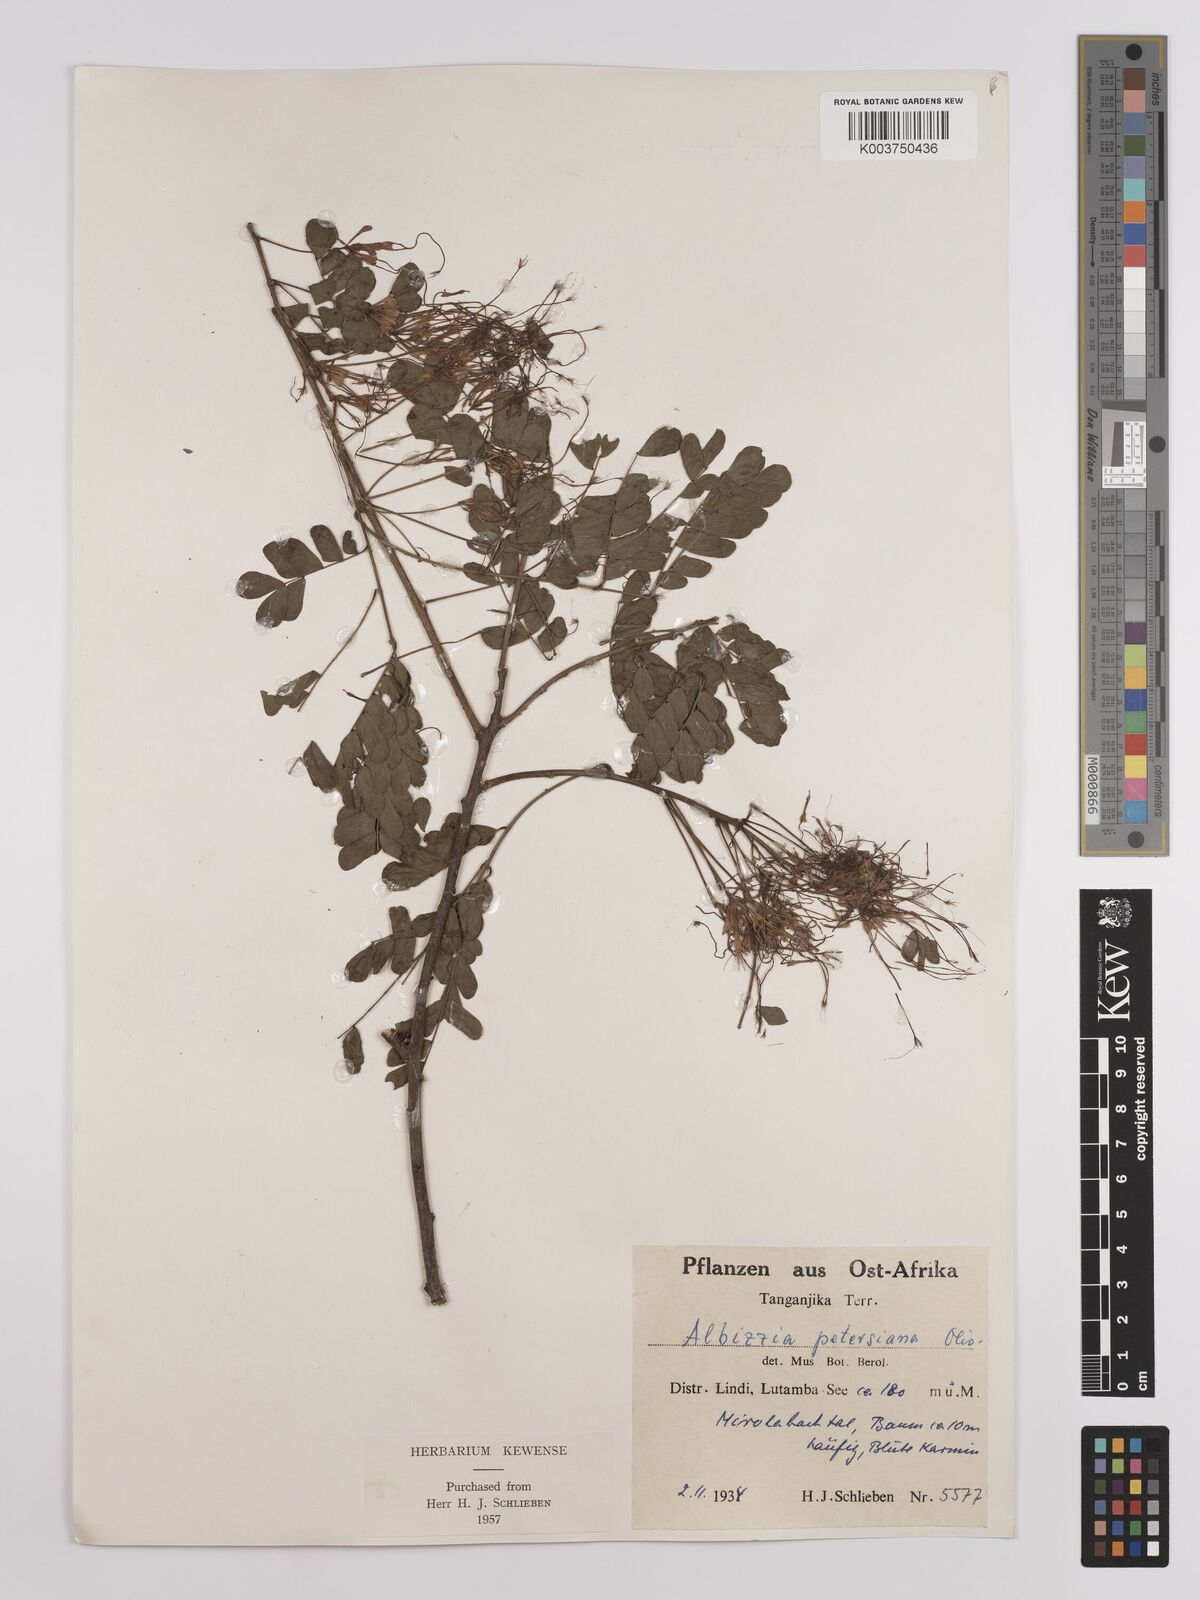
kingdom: Plantae
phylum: Tracheophyta
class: Magnoliopsida
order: Fabales
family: Fabaceae
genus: Albizia
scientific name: Albizia petersiana
